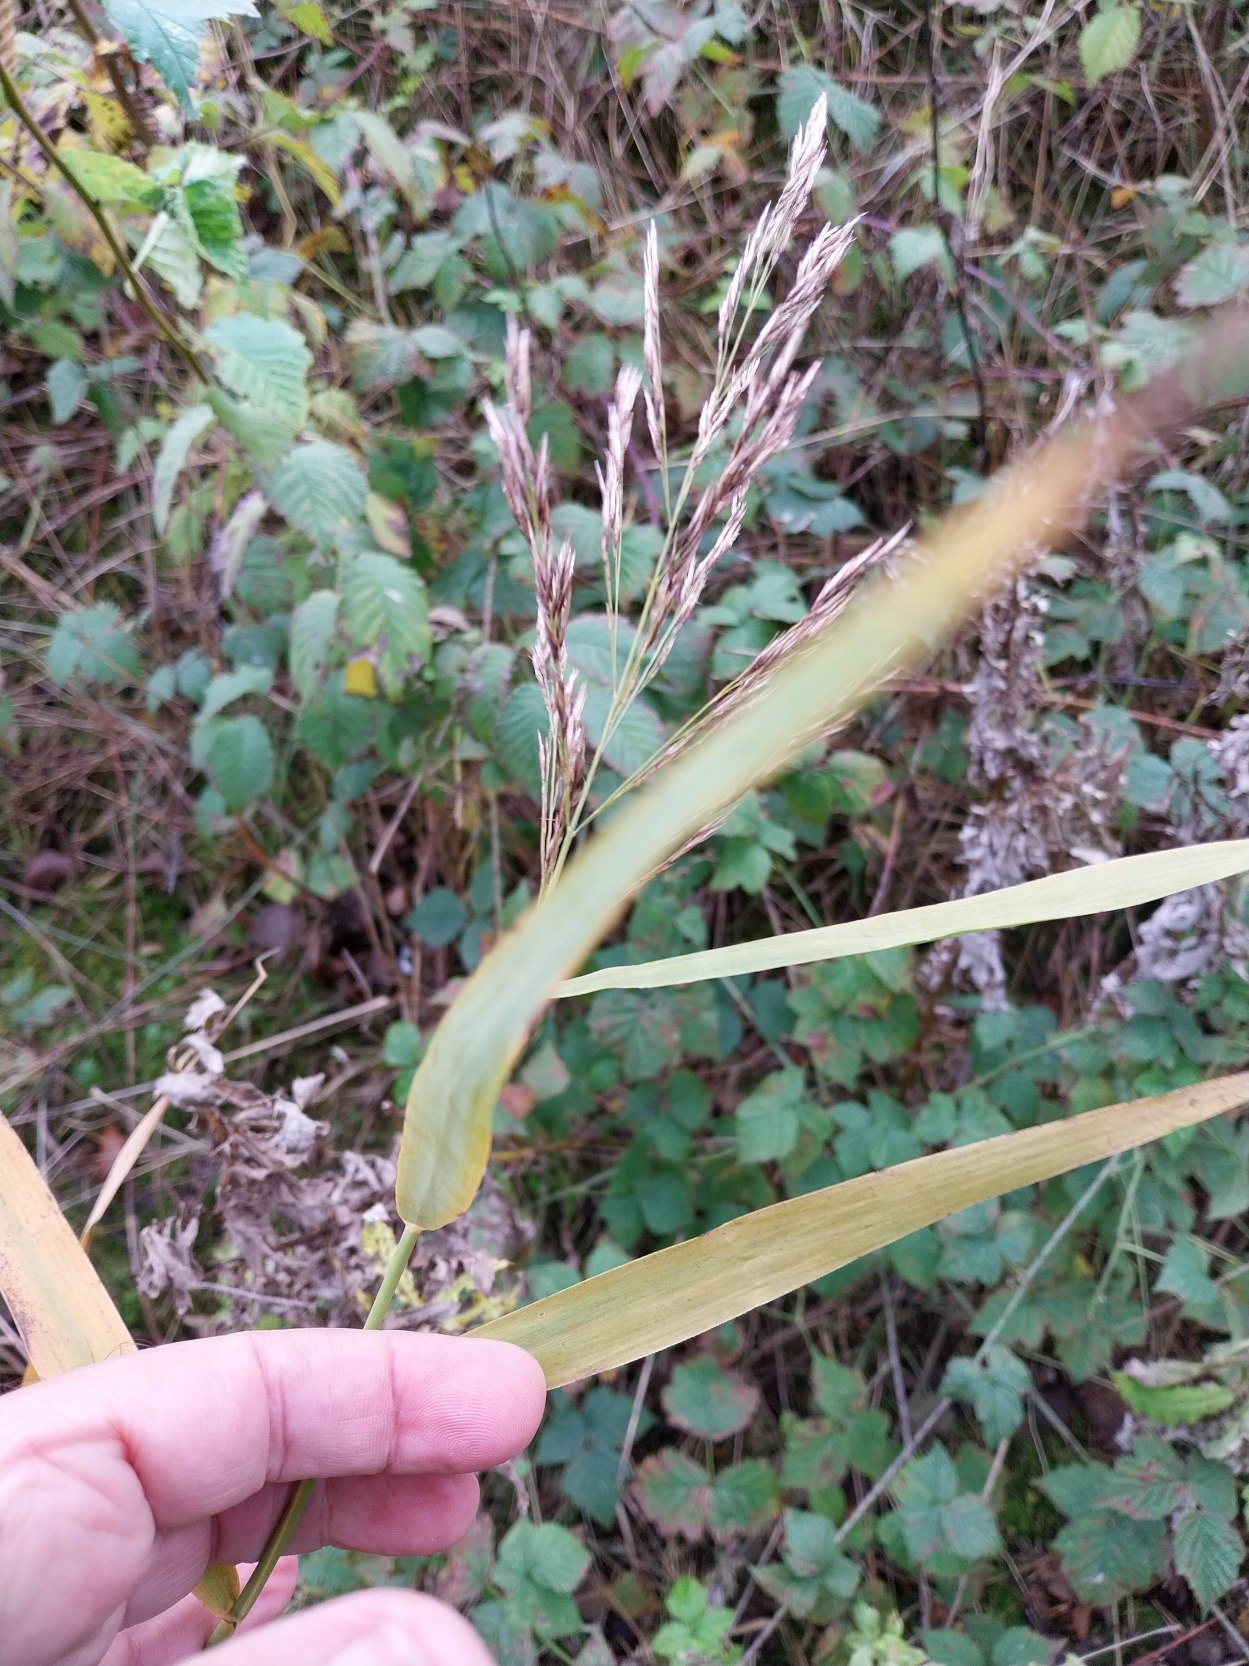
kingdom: Plantae
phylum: Tracheophyta
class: Liliopsida
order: Poales
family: Poaceae
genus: Phragmites
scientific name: Phragmites australis
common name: Tagrør
